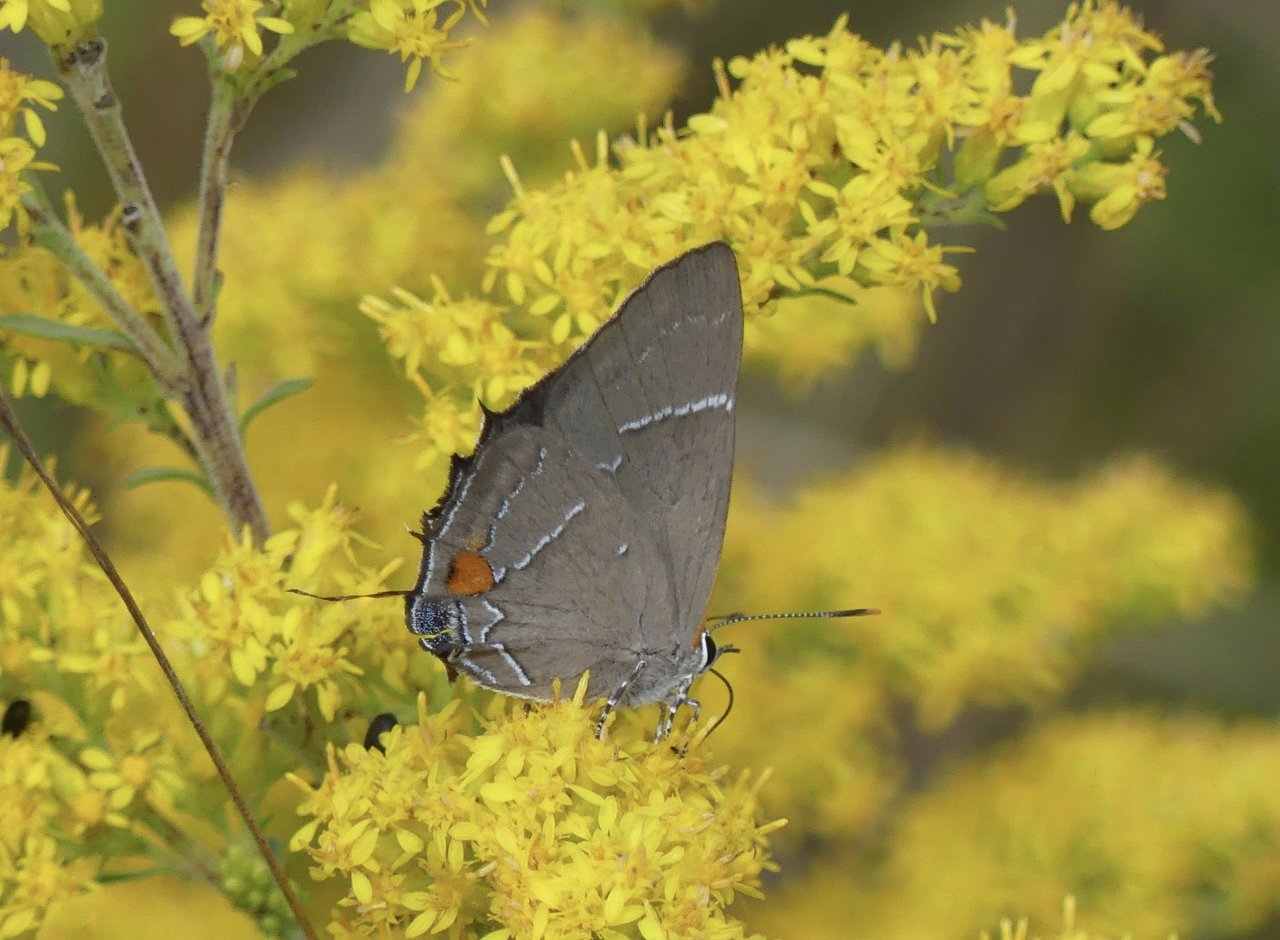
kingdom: Animalia
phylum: Arthropoda
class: Insecta
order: Lepidoptera
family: Lycaenidae
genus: Parrhasius
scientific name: Parrhasius m-album
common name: White-m Hairstreak
